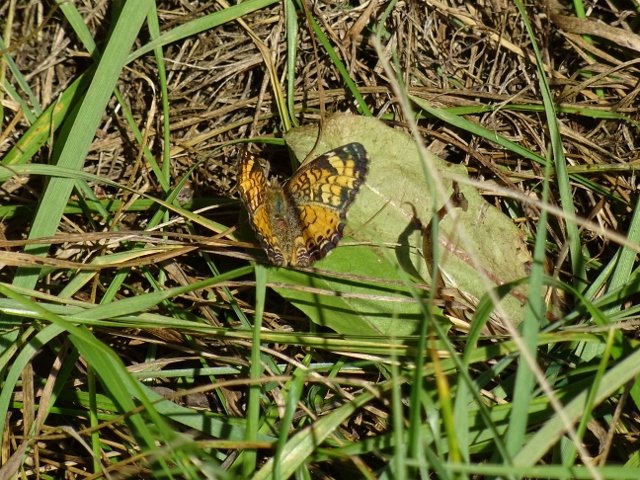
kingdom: Animalia
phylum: Arthropoda
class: Insecta
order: Lepidoptera
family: Nymphalidae
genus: Phyciodes
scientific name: Phyciodes
